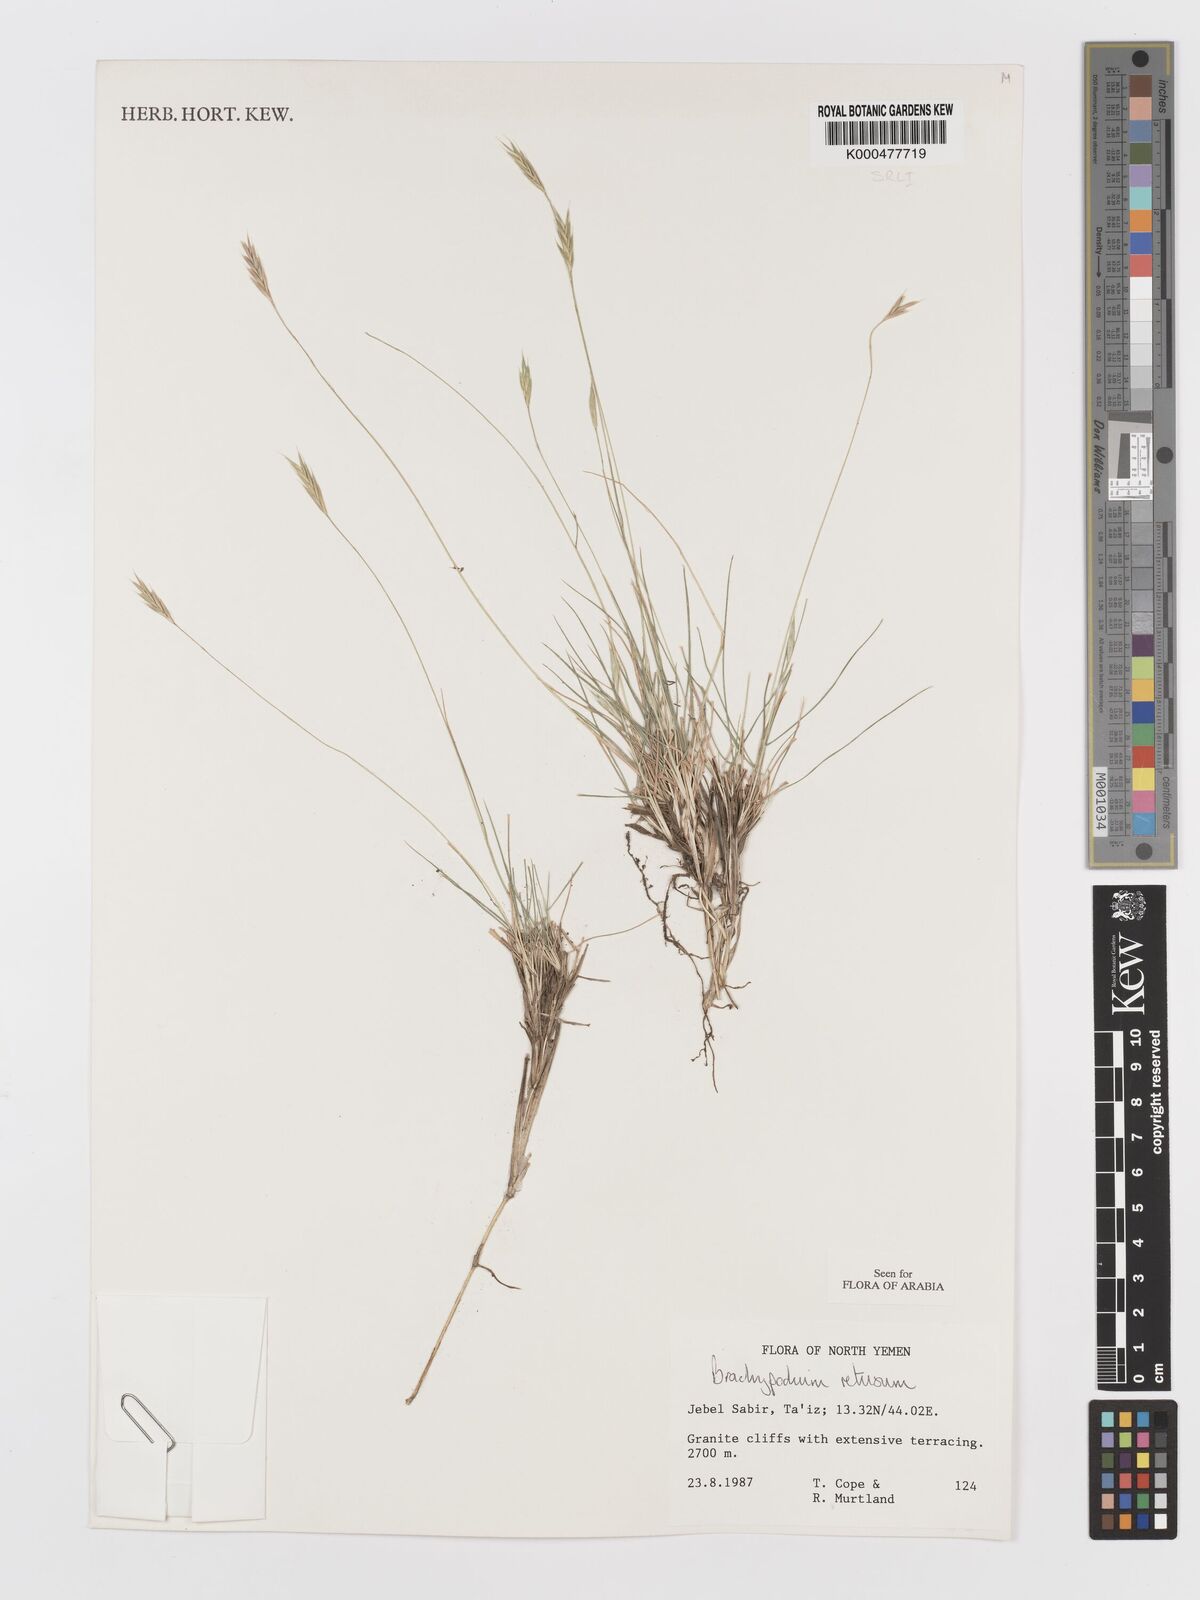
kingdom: Plantae
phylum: Tracheophyta
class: Liliopsida
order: Poales
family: Poaceae
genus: Brachypodium
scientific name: Brachypodium retusum
